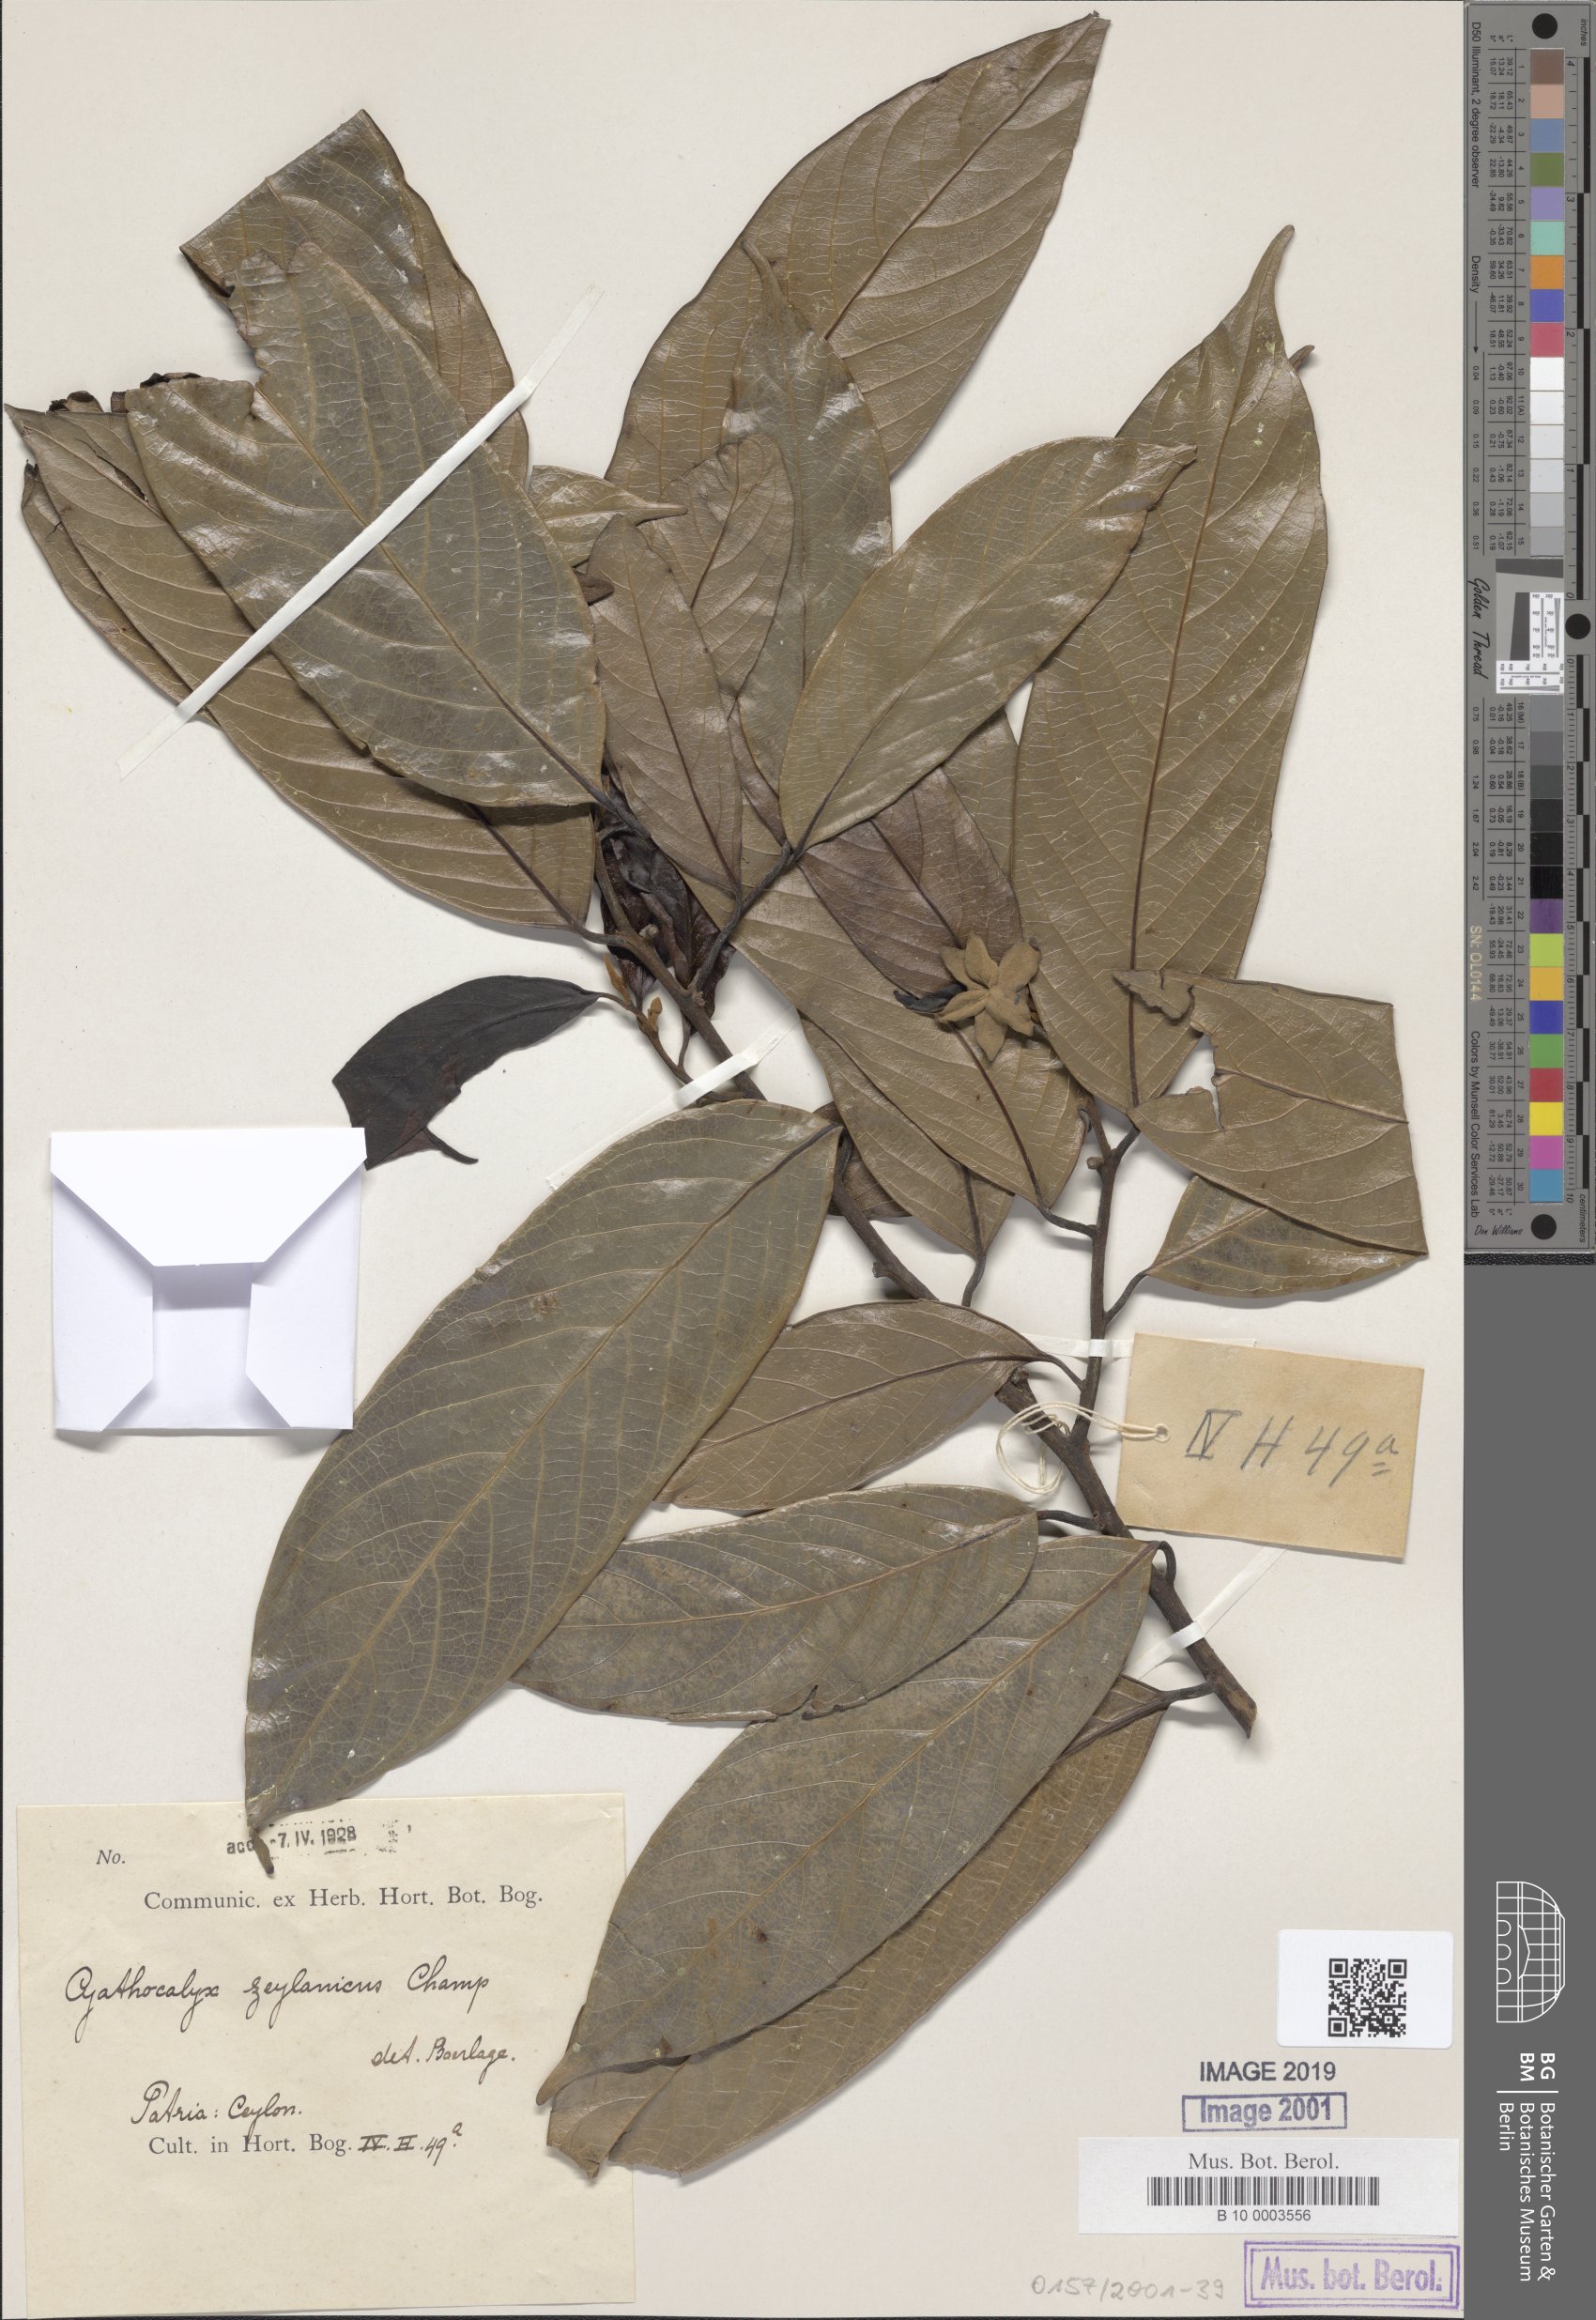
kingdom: Plantae
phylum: Tracheophyta
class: Magnoliopsida
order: Magnoliales
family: Annonaceae
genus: Cyathocalyx
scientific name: Cyathocalyx zeylanicus
